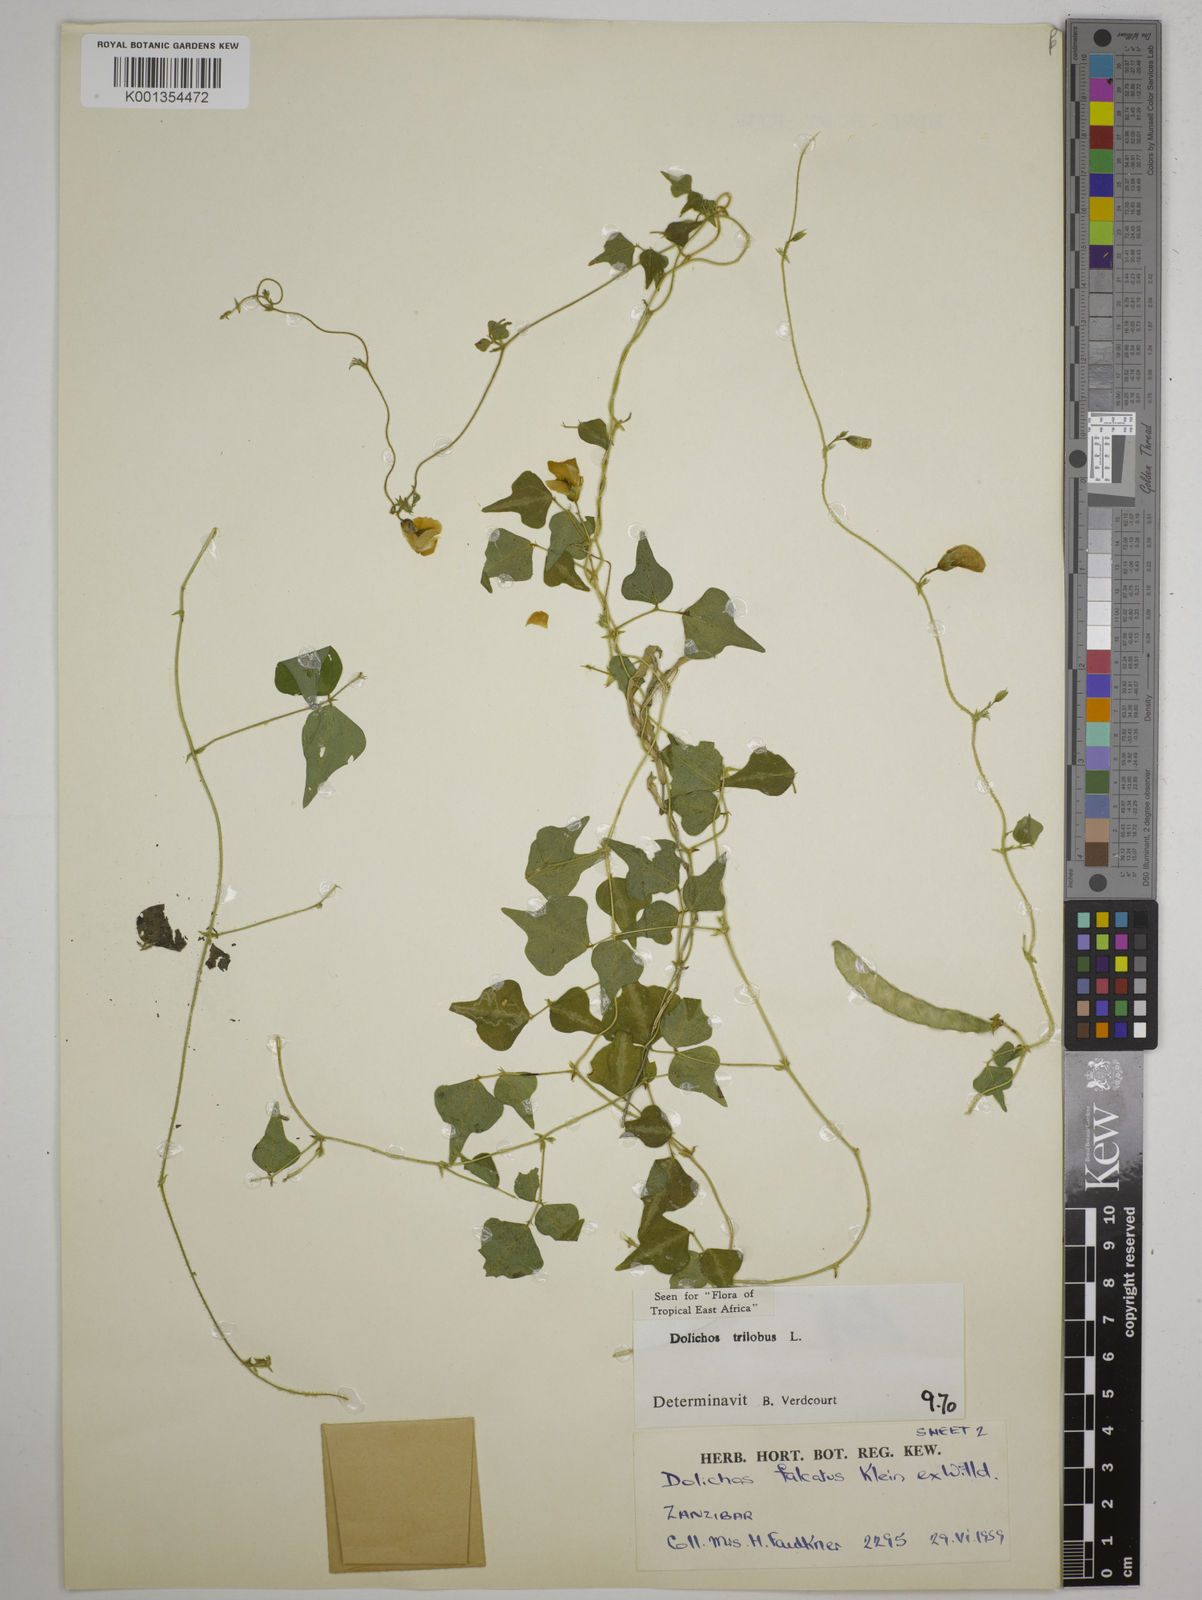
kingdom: Plantae
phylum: Tracheophyta
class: Magnoliopsida
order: Fabales
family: Fabaceae
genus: Dolichos
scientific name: Dolichos
